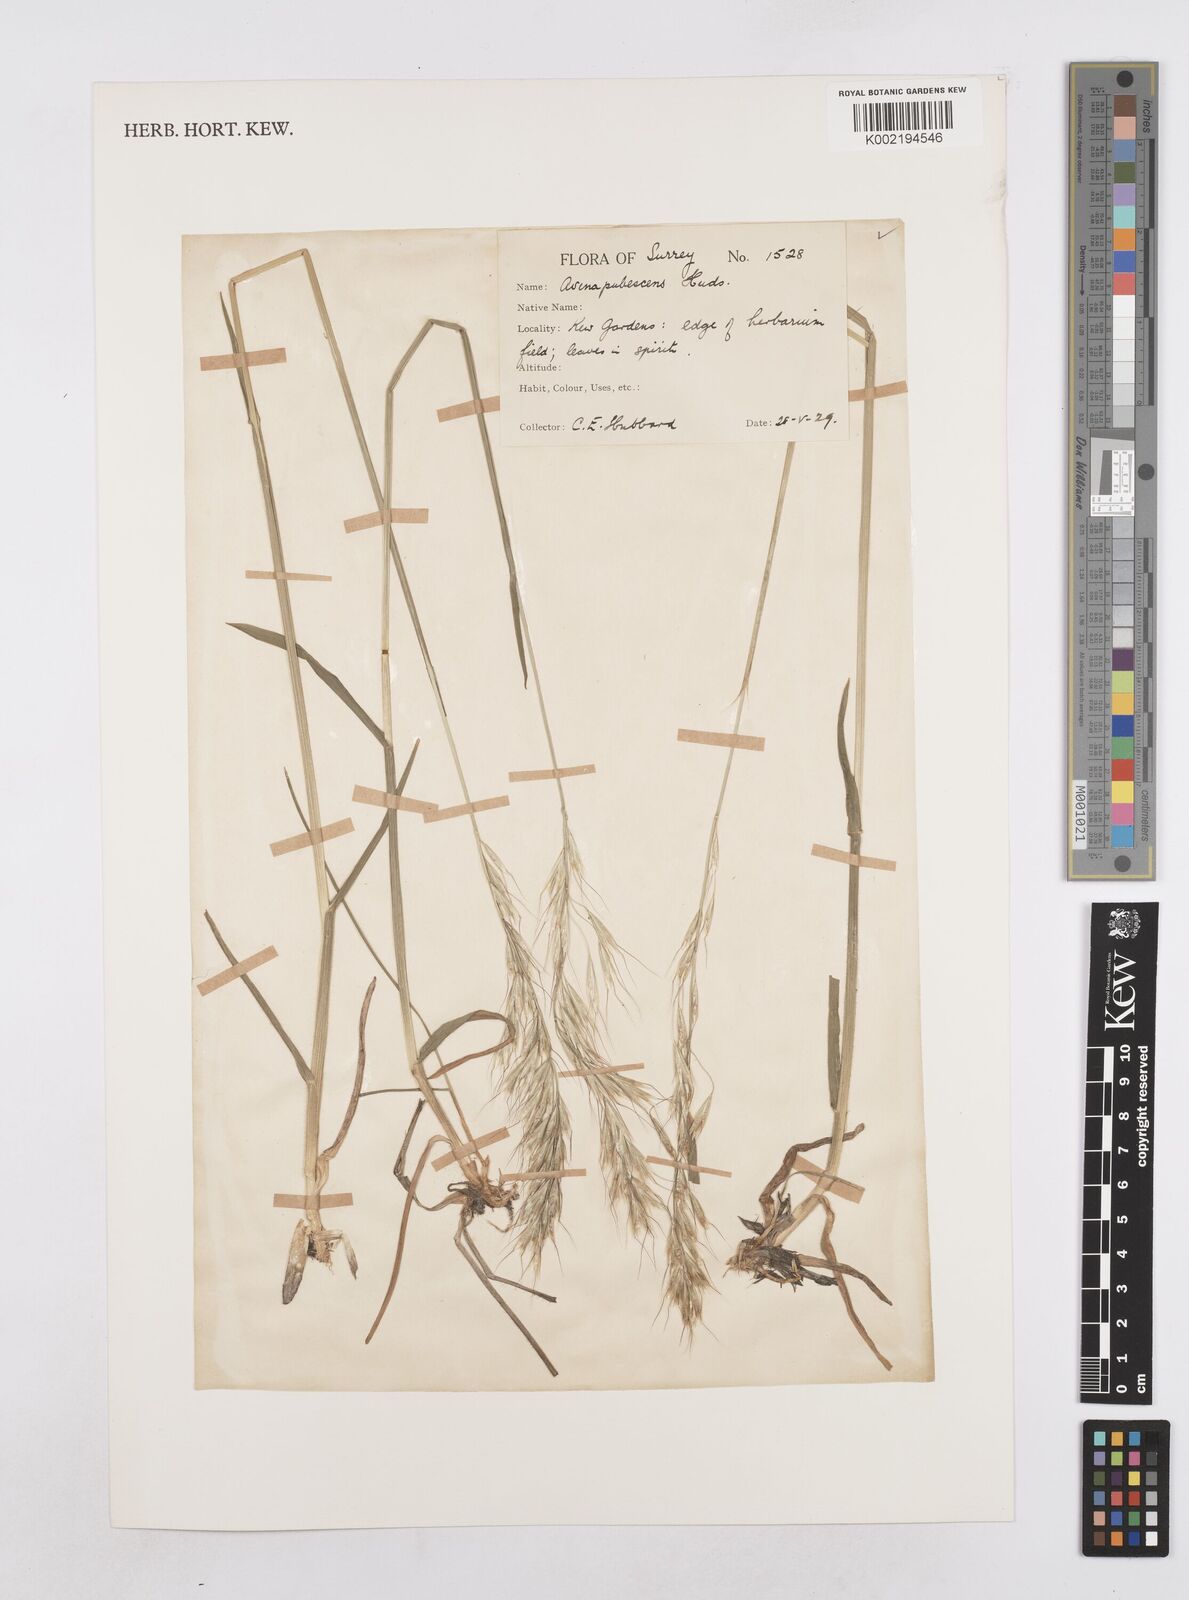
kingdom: Plantae
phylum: Tracheophyta
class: Liliopsida
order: Poales
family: Poaceae
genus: Avenula
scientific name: Avenula pubescens
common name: Downy alpine oatgrass
